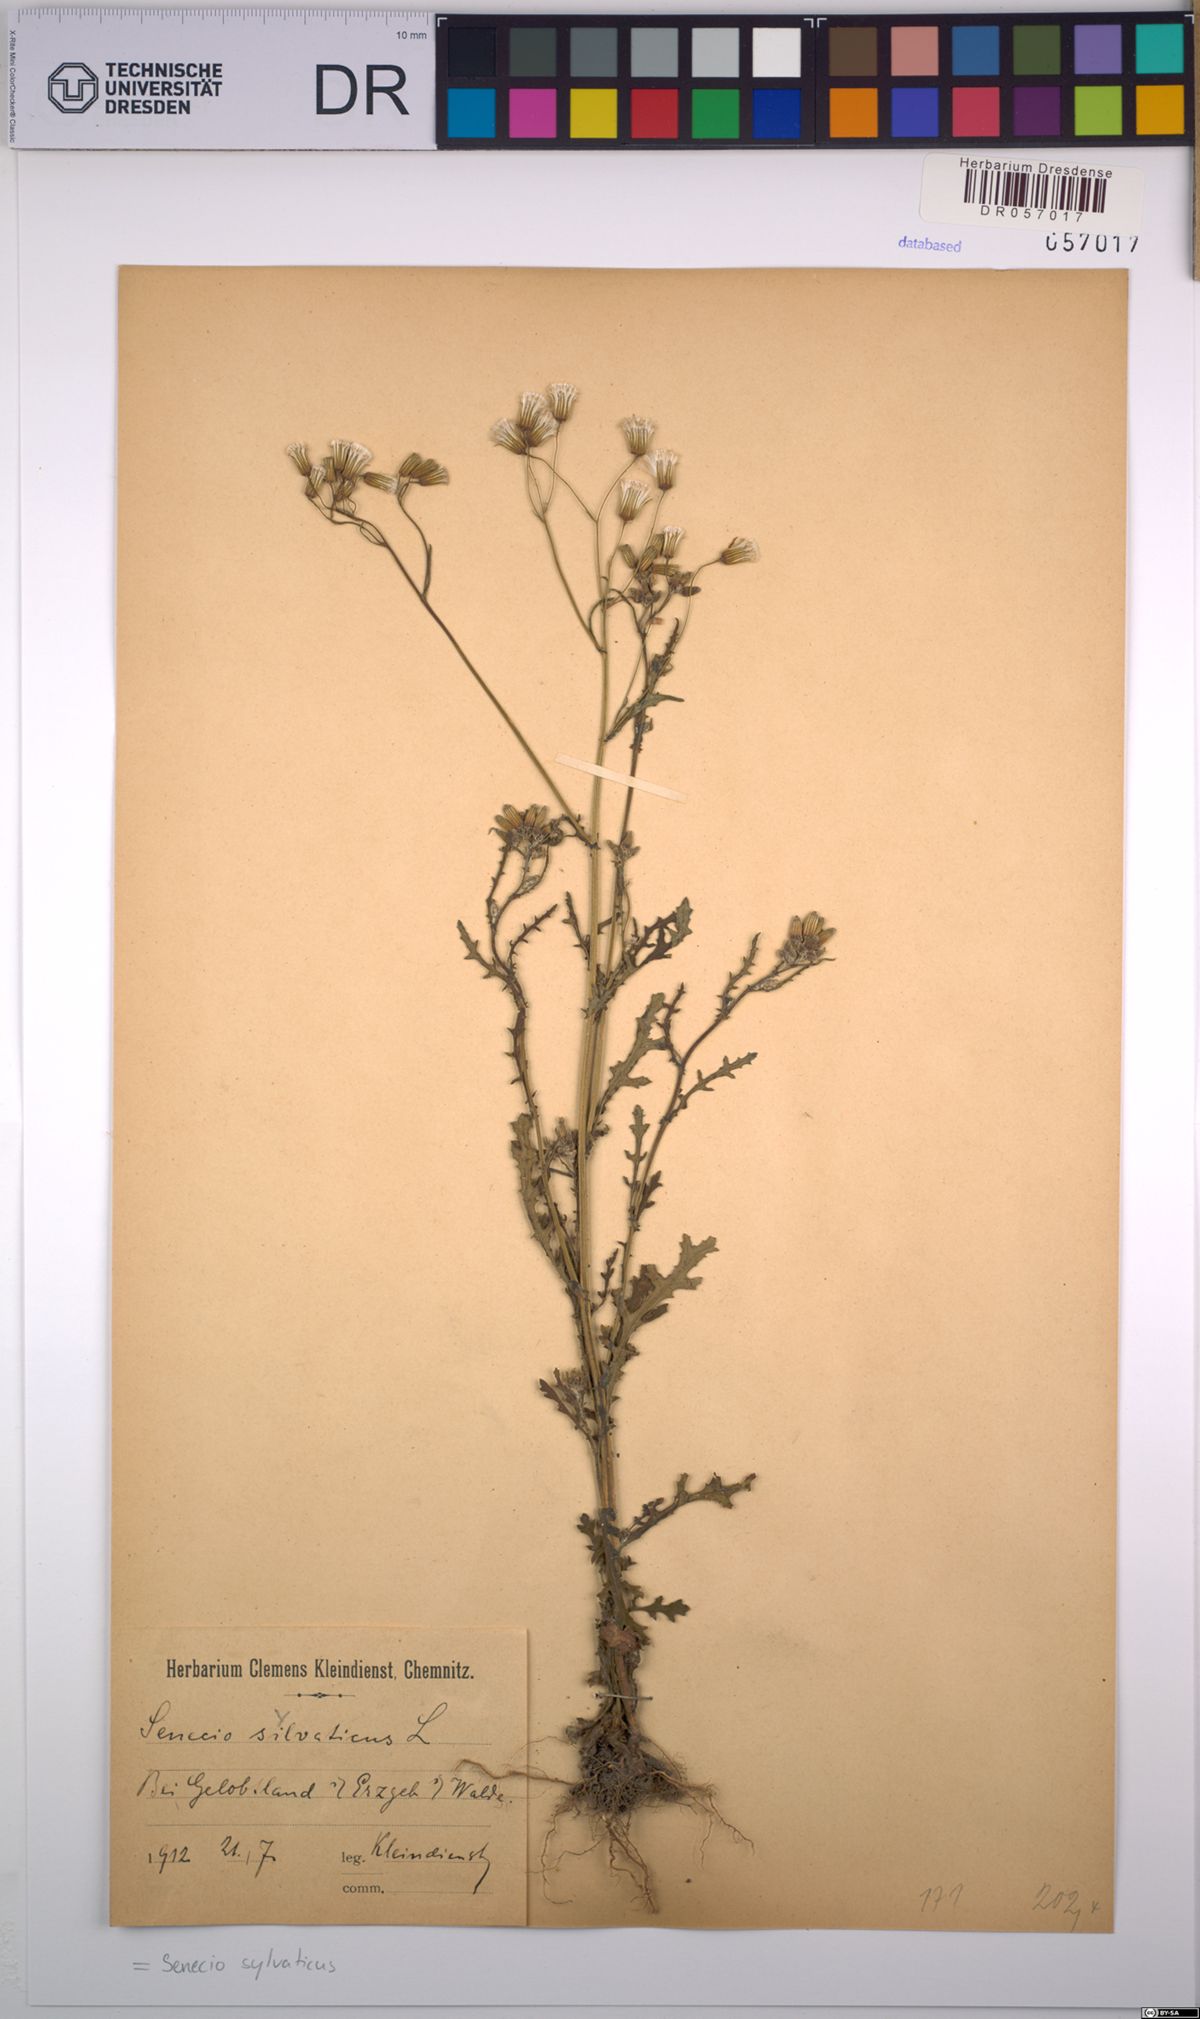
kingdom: Plantae
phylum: Tracheophyta
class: Magnoliopsida
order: Asterales
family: Asteraceae
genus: Senecio
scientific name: Senecio sylvaticus
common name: Woodland ragwort
